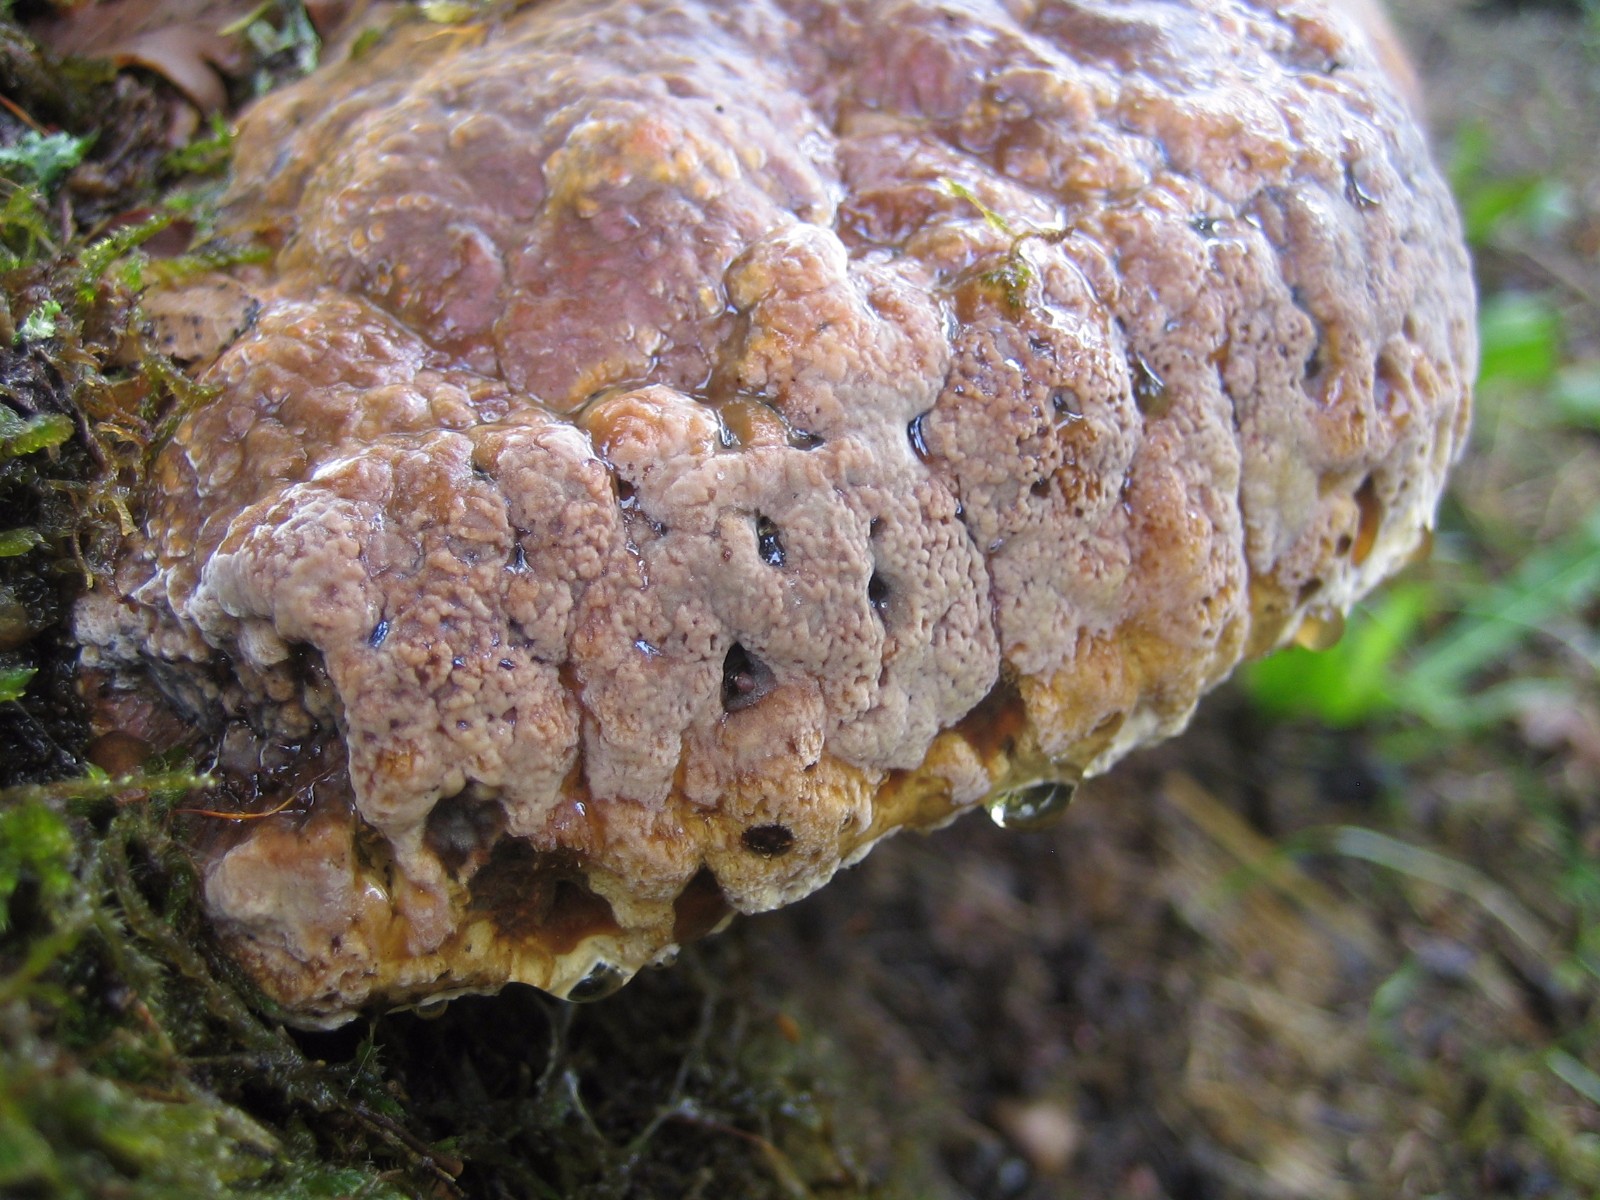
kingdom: Fungi
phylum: Basidiomycota
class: Agaricomycetes
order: Hymenochaetales
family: Hymenochaetaceae
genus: Pseudoinonotus
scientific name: Pseudoinonotus dryadeus
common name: ege-spejlporesvamp
